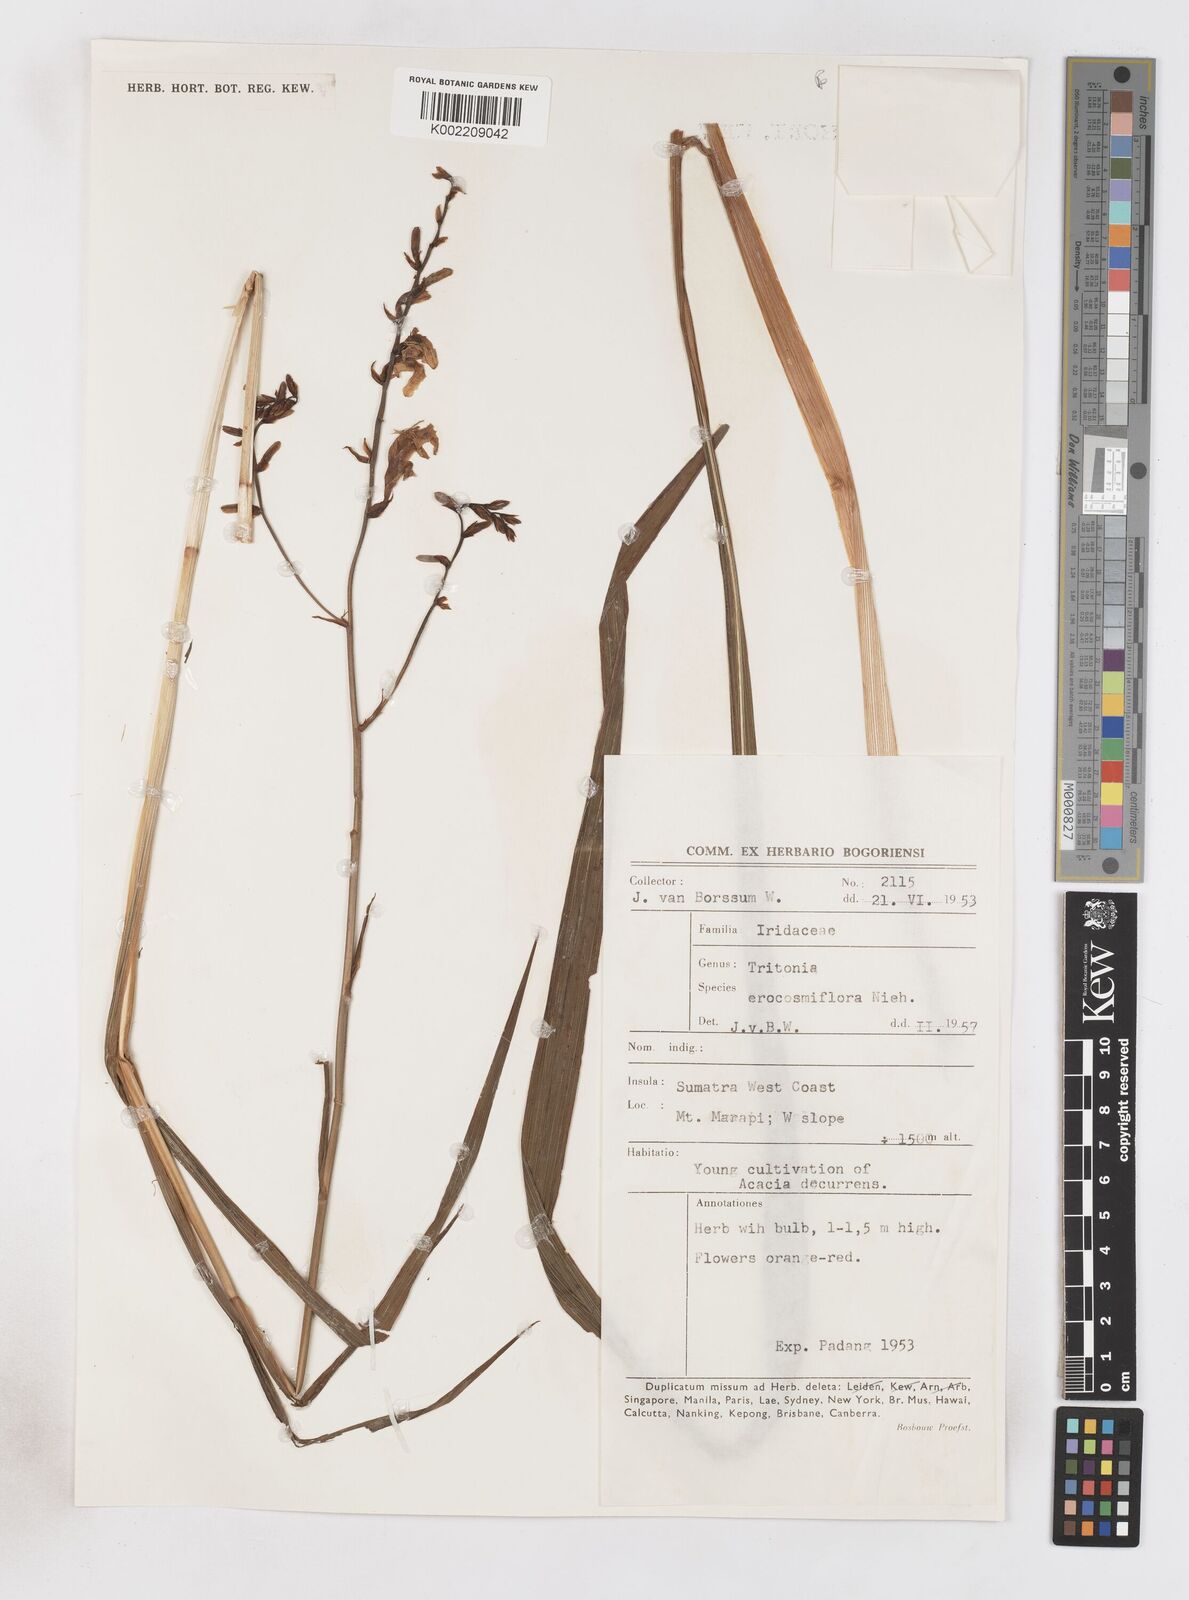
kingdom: Plantae
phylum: Tracheophyta
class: Liliopsida
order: Asparagales
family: Iridaceae
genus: Crocosmia
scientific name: Crocosmia crocosmiiflora
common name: Montbretia
